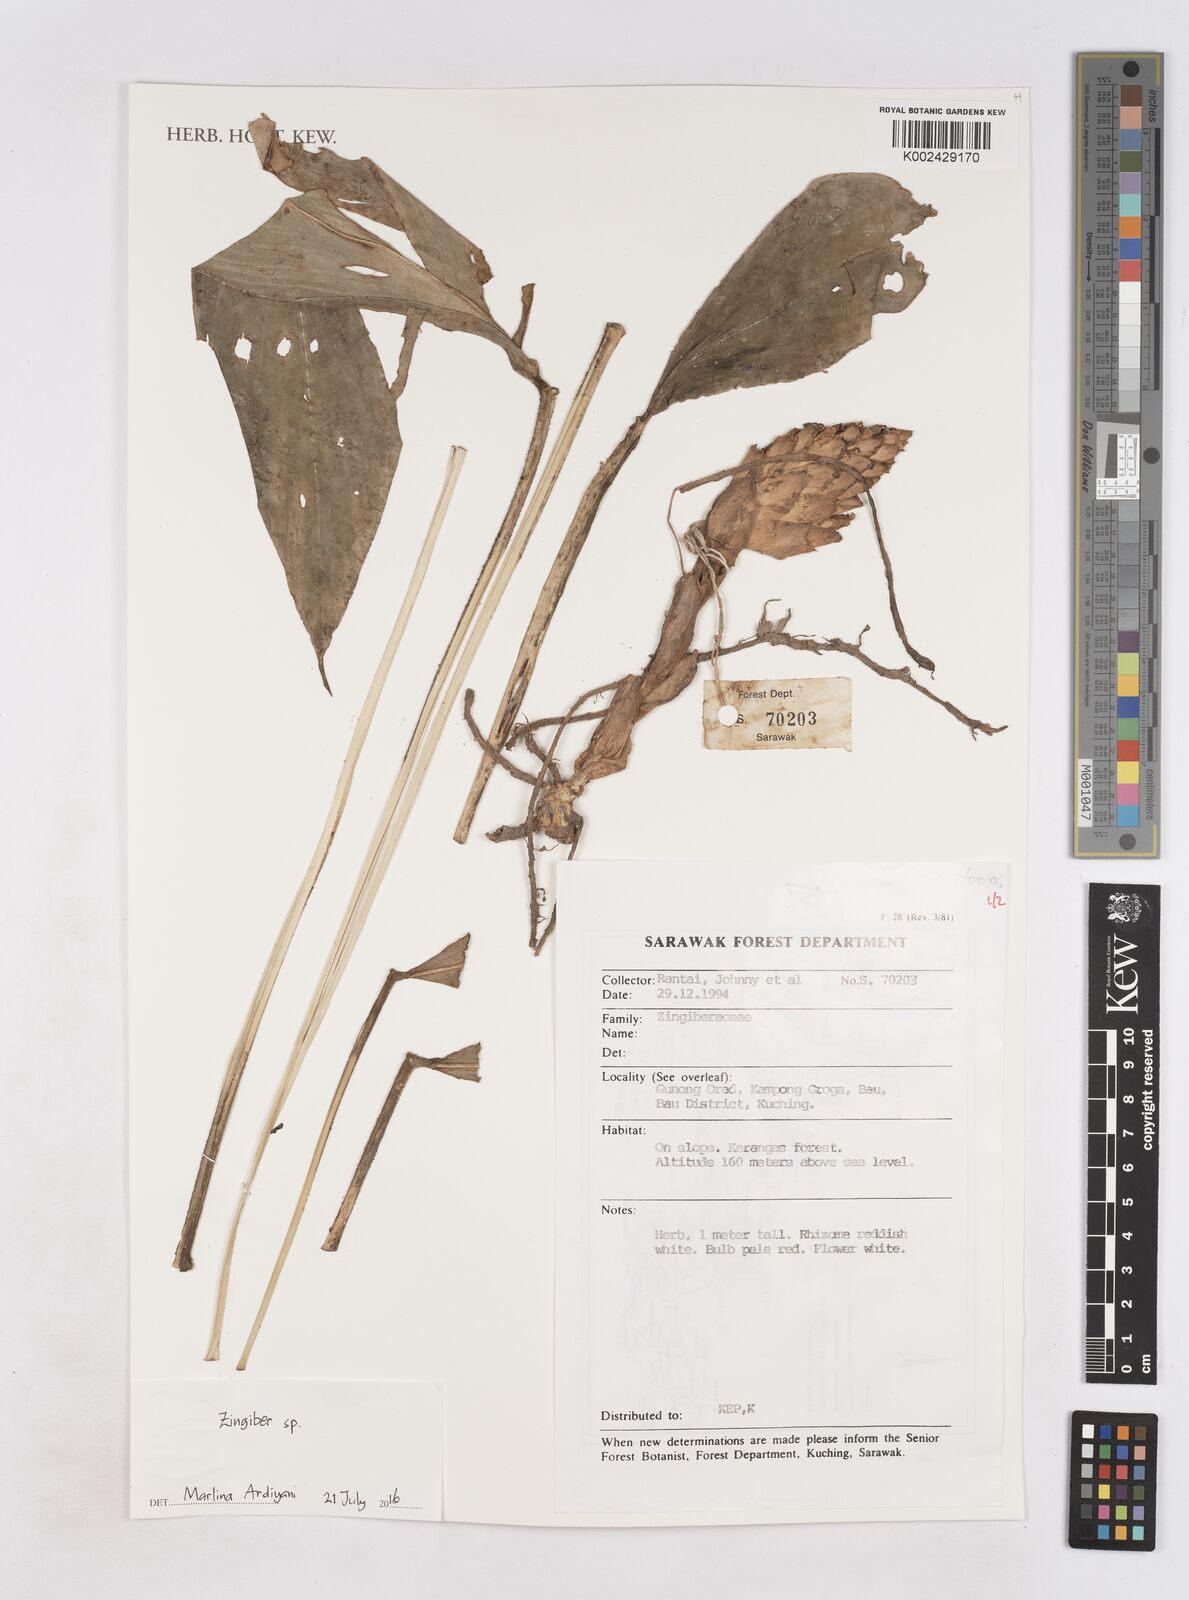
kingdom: Plantae
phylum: Tracheophyta
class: Liliopsida
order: Zingiberales
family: Zingiberaceae
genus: Zingiber
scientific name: Zingiber
